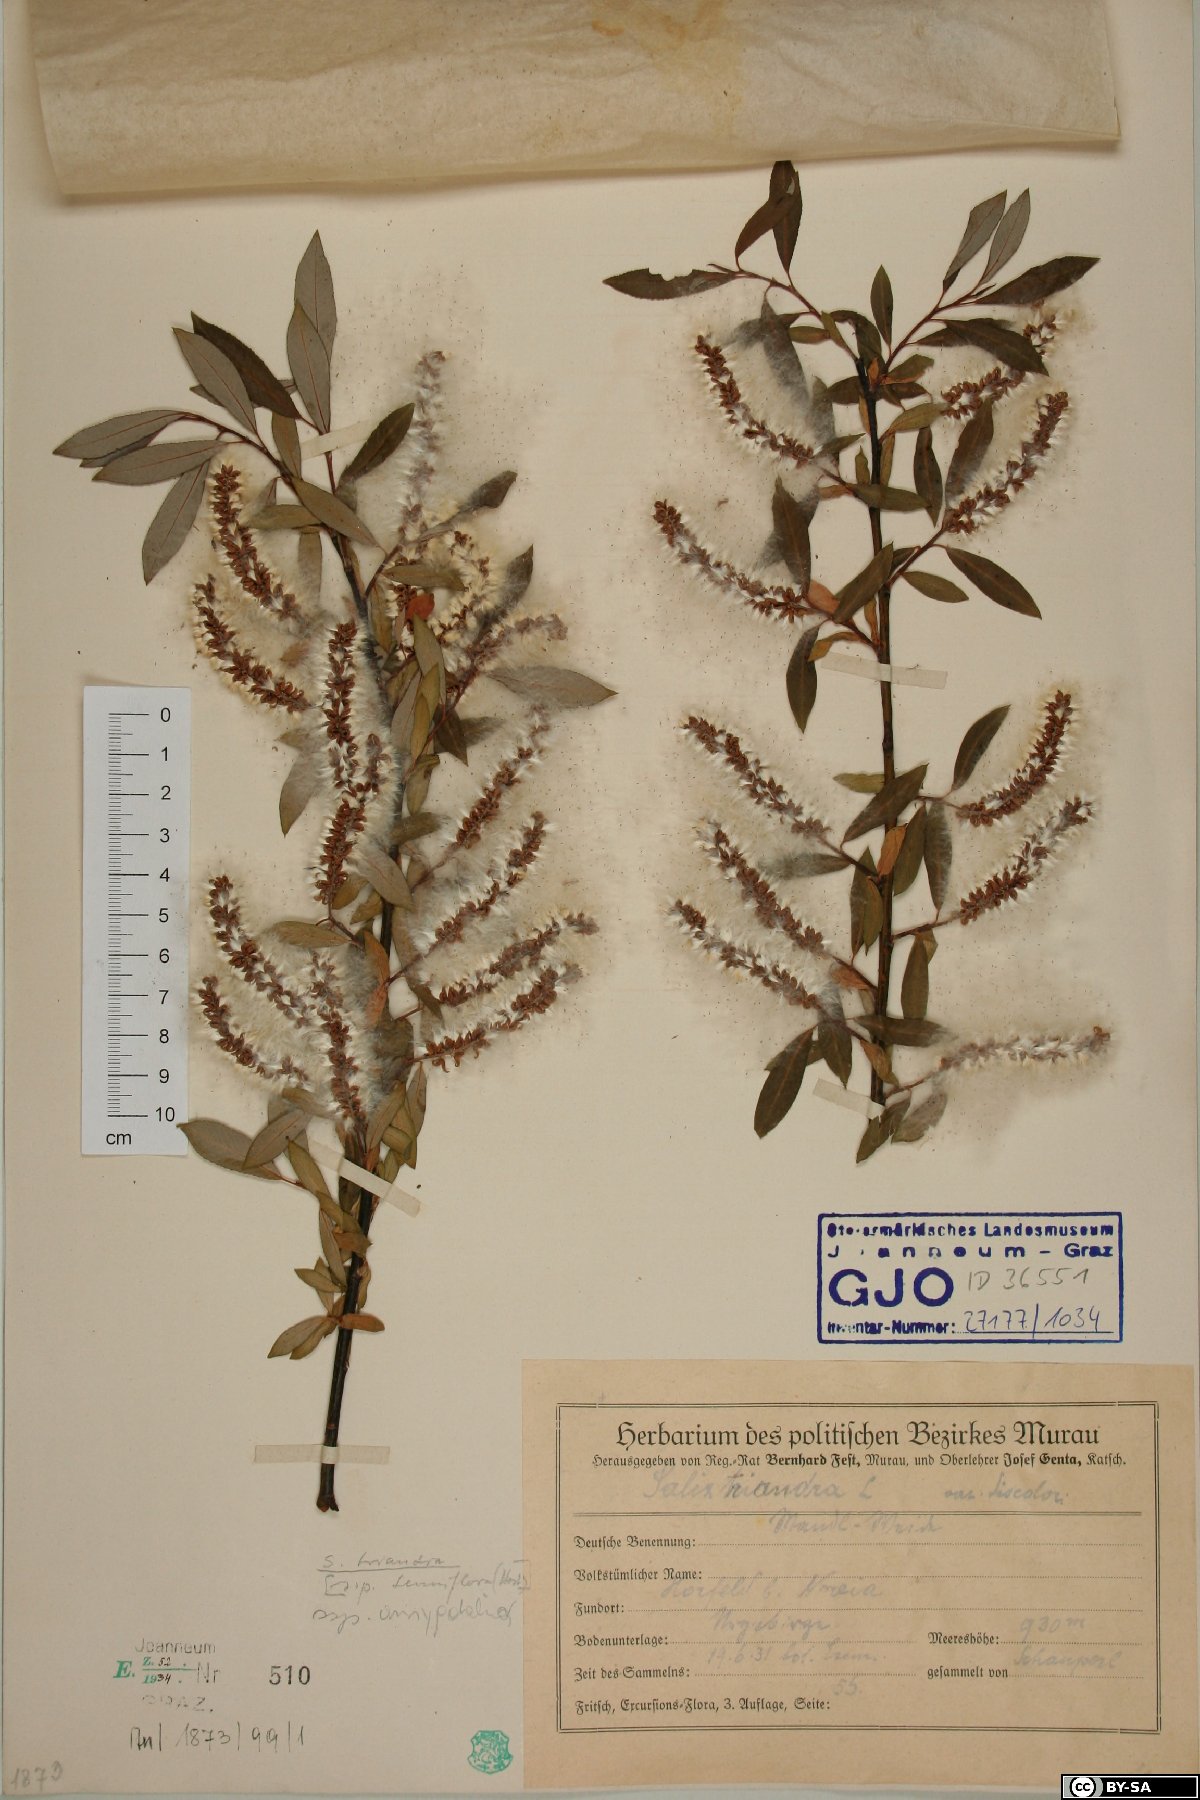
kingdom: Plantae
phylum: Tracheophyta
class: Magnoliopsida
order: Malpighiales
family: Salicaceae
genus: Salix
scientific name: Salix triandra
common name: Almond willow
